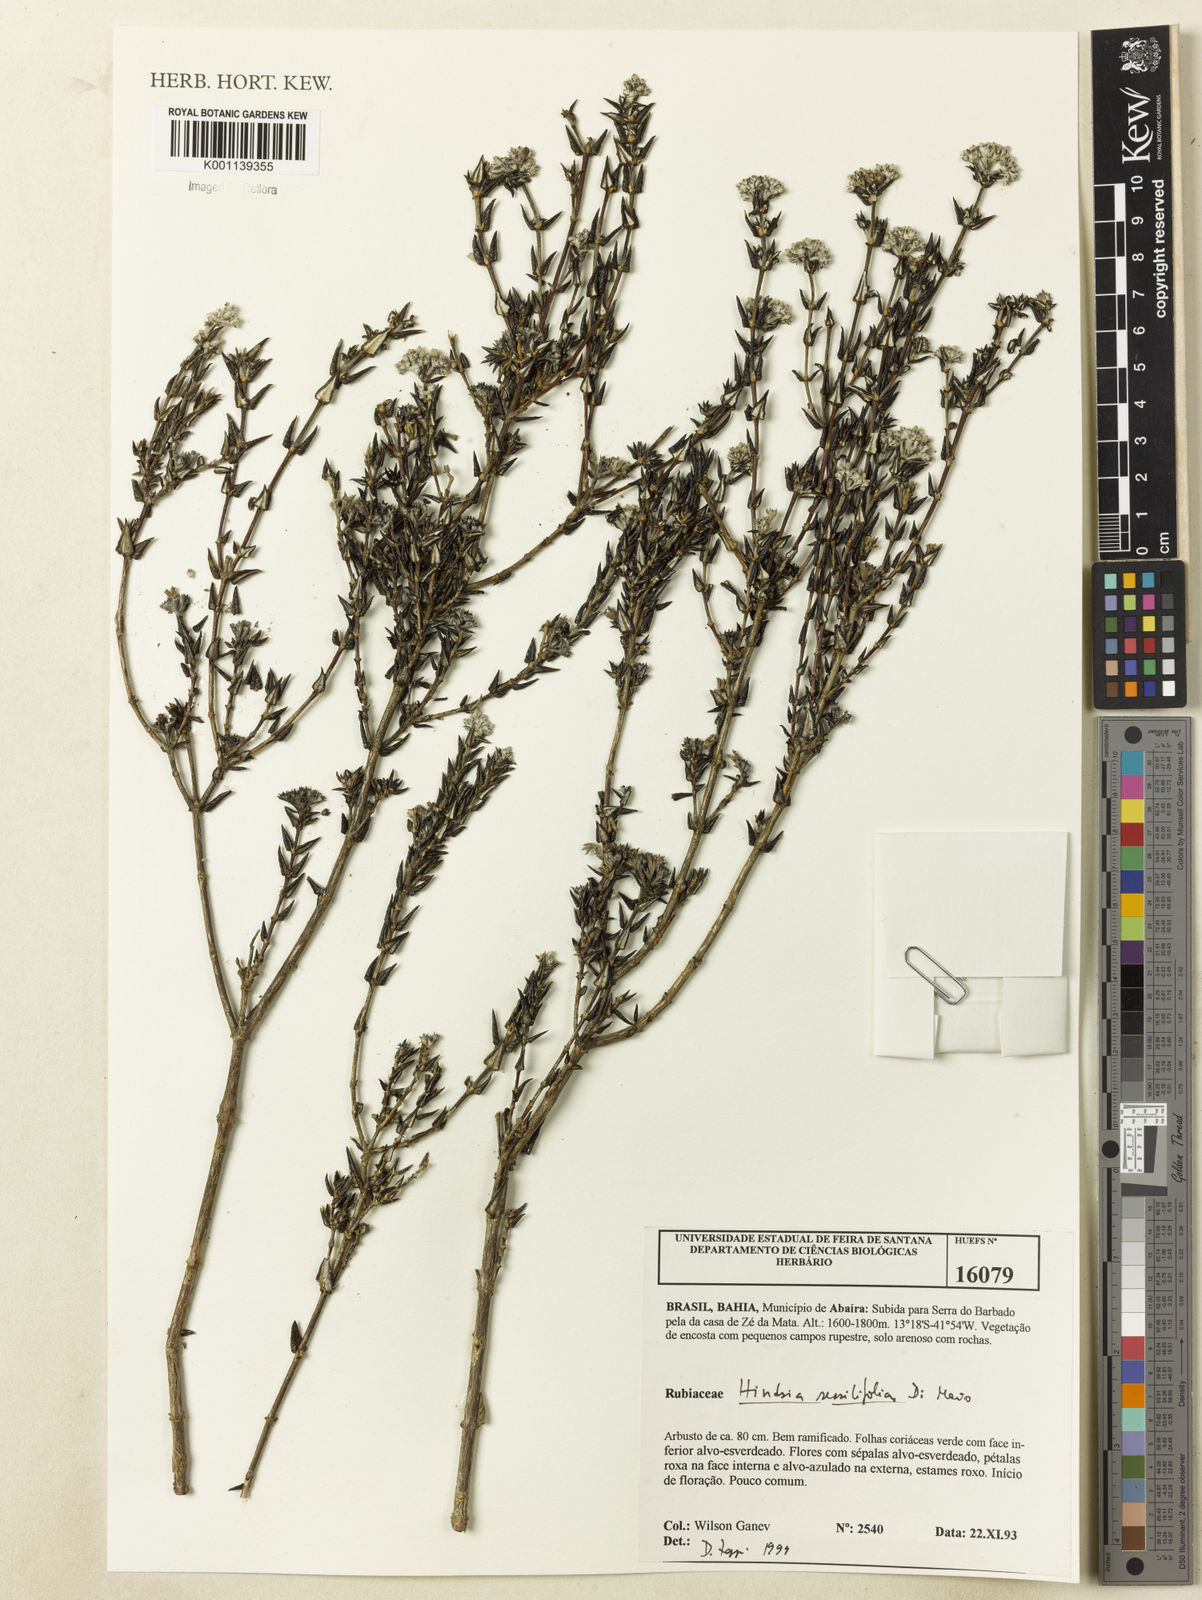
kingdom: Plantae
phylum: Tracheophyta
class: Magnoliopsida
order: Gentianales
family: Rubiaceae
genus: Hindsia
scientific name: Hindsia sessilifolia
